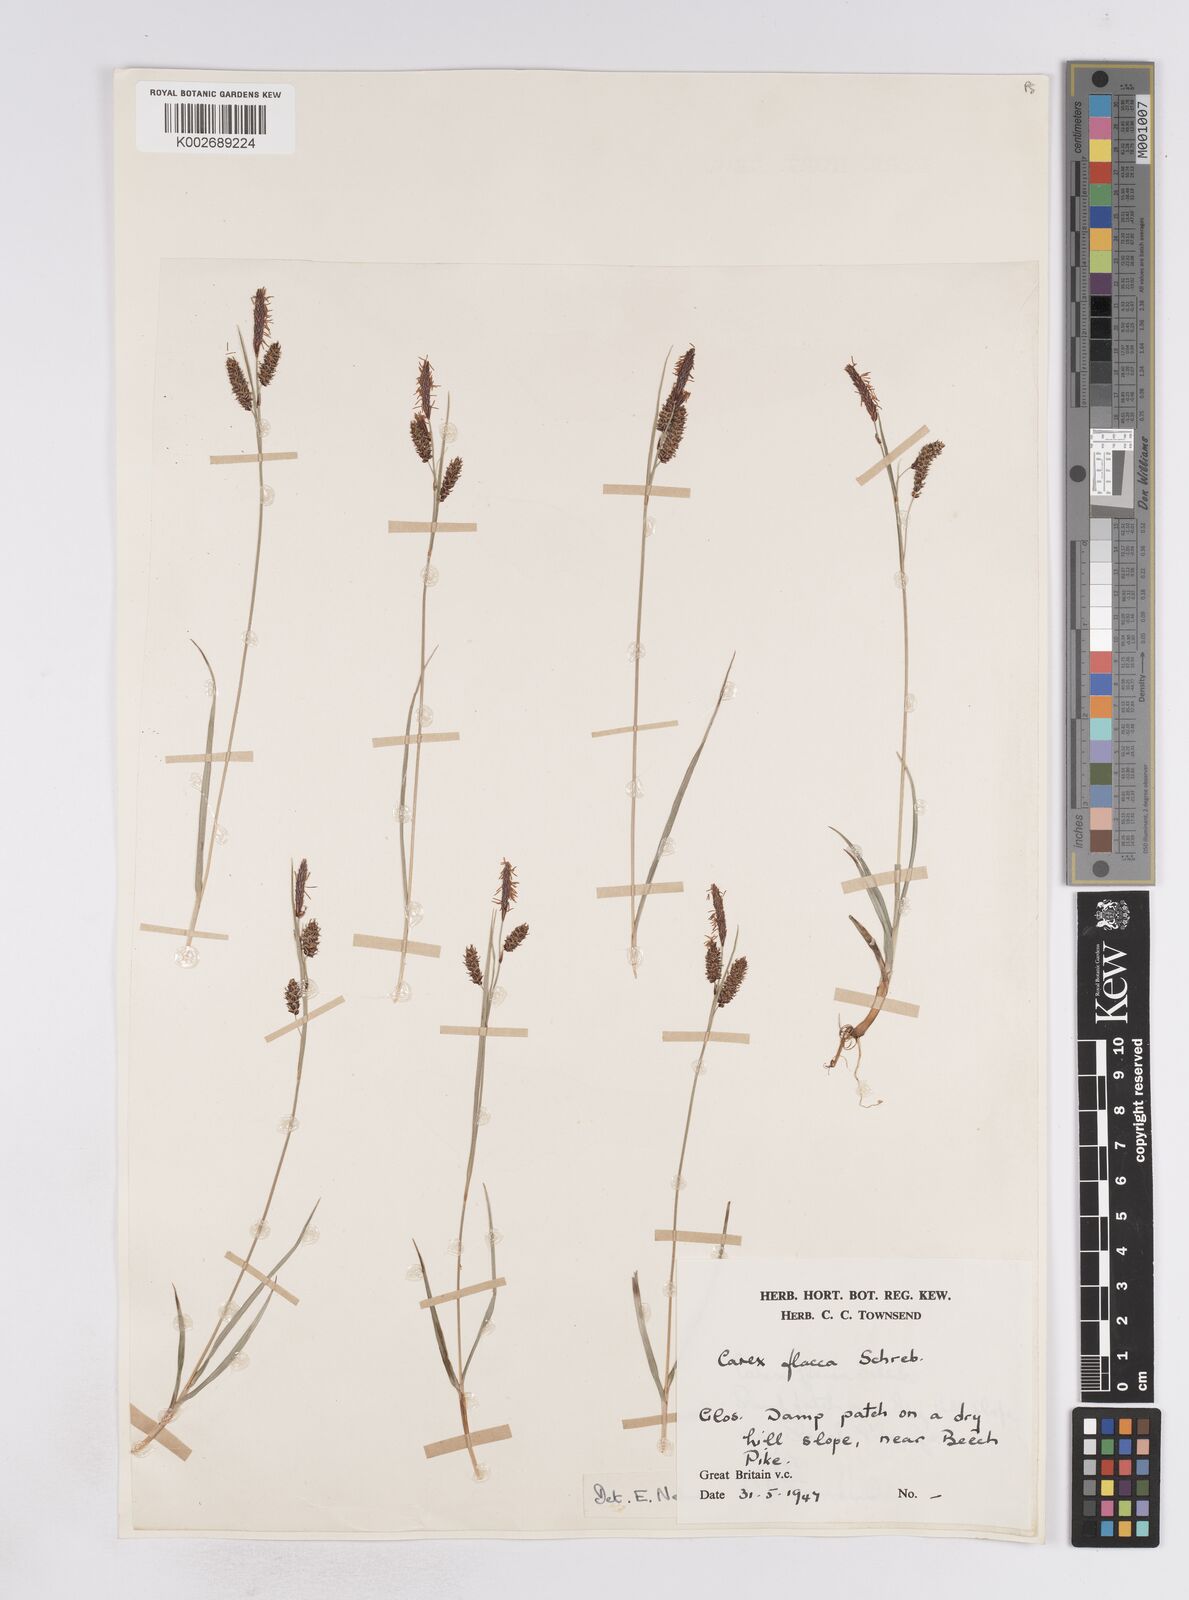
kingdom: Plantae
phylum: Tracheophyta
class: Liliopsida
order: Poales
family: Cyperaceae
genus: Carex
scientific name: Carex flacca
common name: Glaucous sedge
